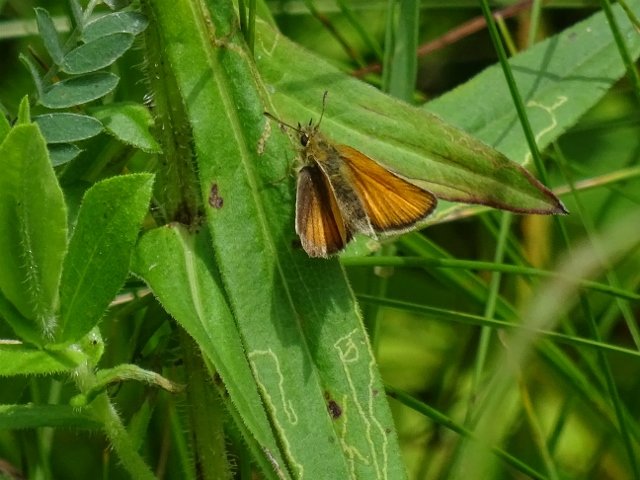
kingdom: Animalia
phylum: Arthropoda
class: Insecta
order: Lepidoptera
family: Hesperiidae
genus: Thymelicus
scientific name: Thymelicus lineola
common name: European Skipper
